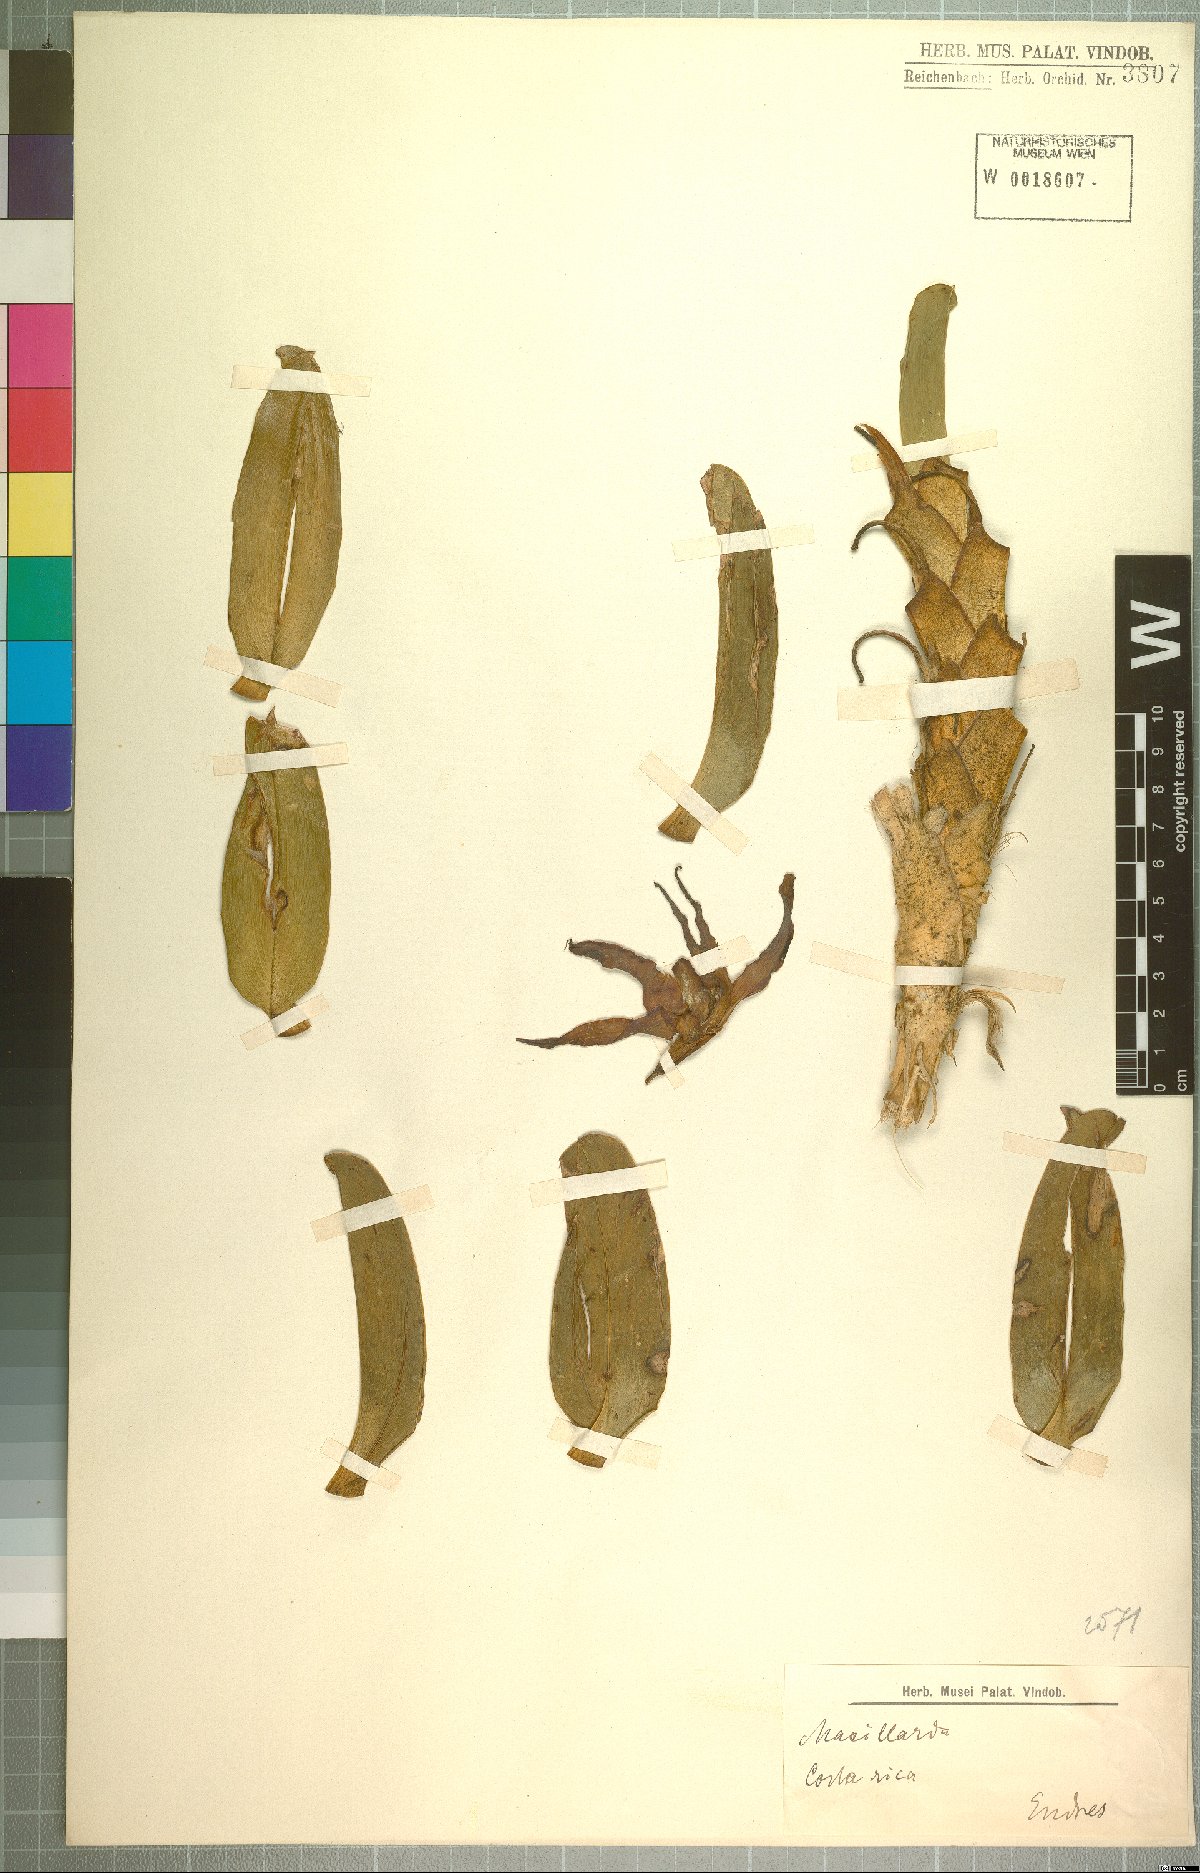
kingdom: Plantae
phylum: Tracheophyta
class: Liliopsida
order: Asparagales
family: Orchidaceae
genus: Maxillaria
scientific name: Maxillaria
